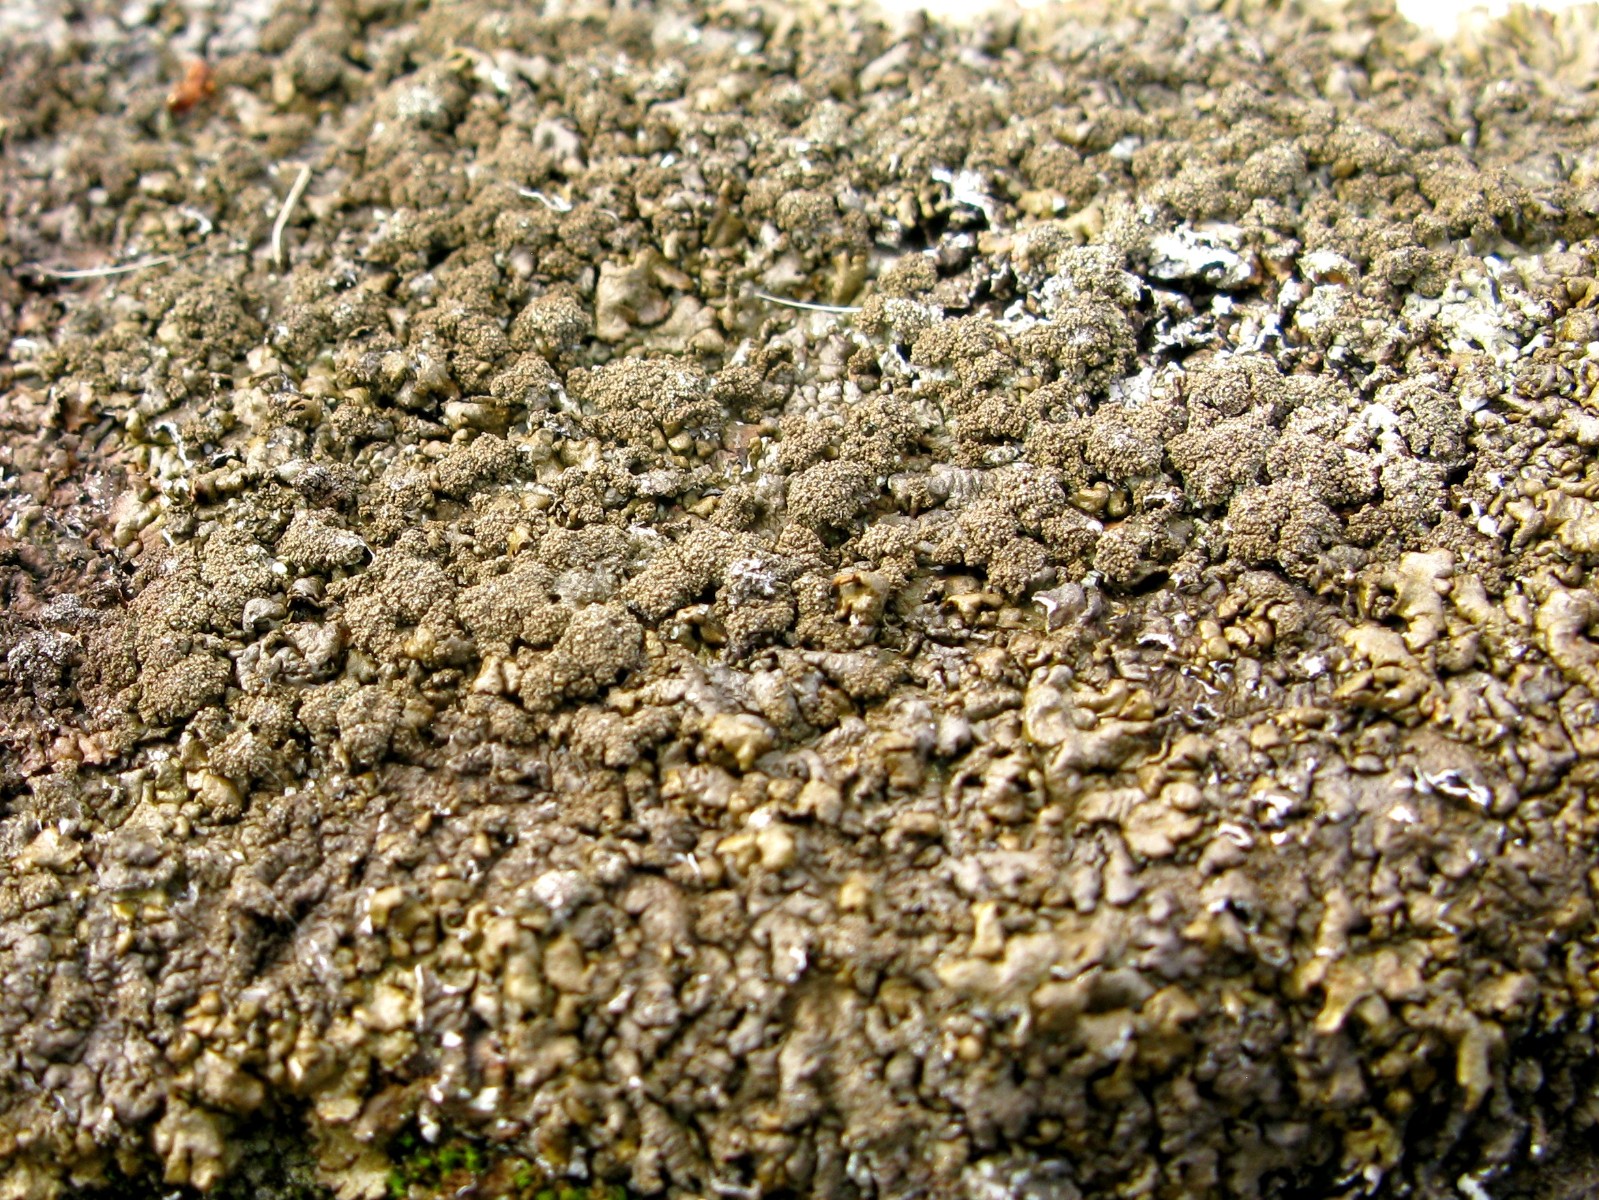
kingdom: Fungi
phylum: Ascomycota
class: Lecanoromycetes
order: Lecanorales
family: Parmeliaceae
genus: Xanthoparmelia
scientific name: Xanthoparmelia loxodes
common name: knudret skållav
